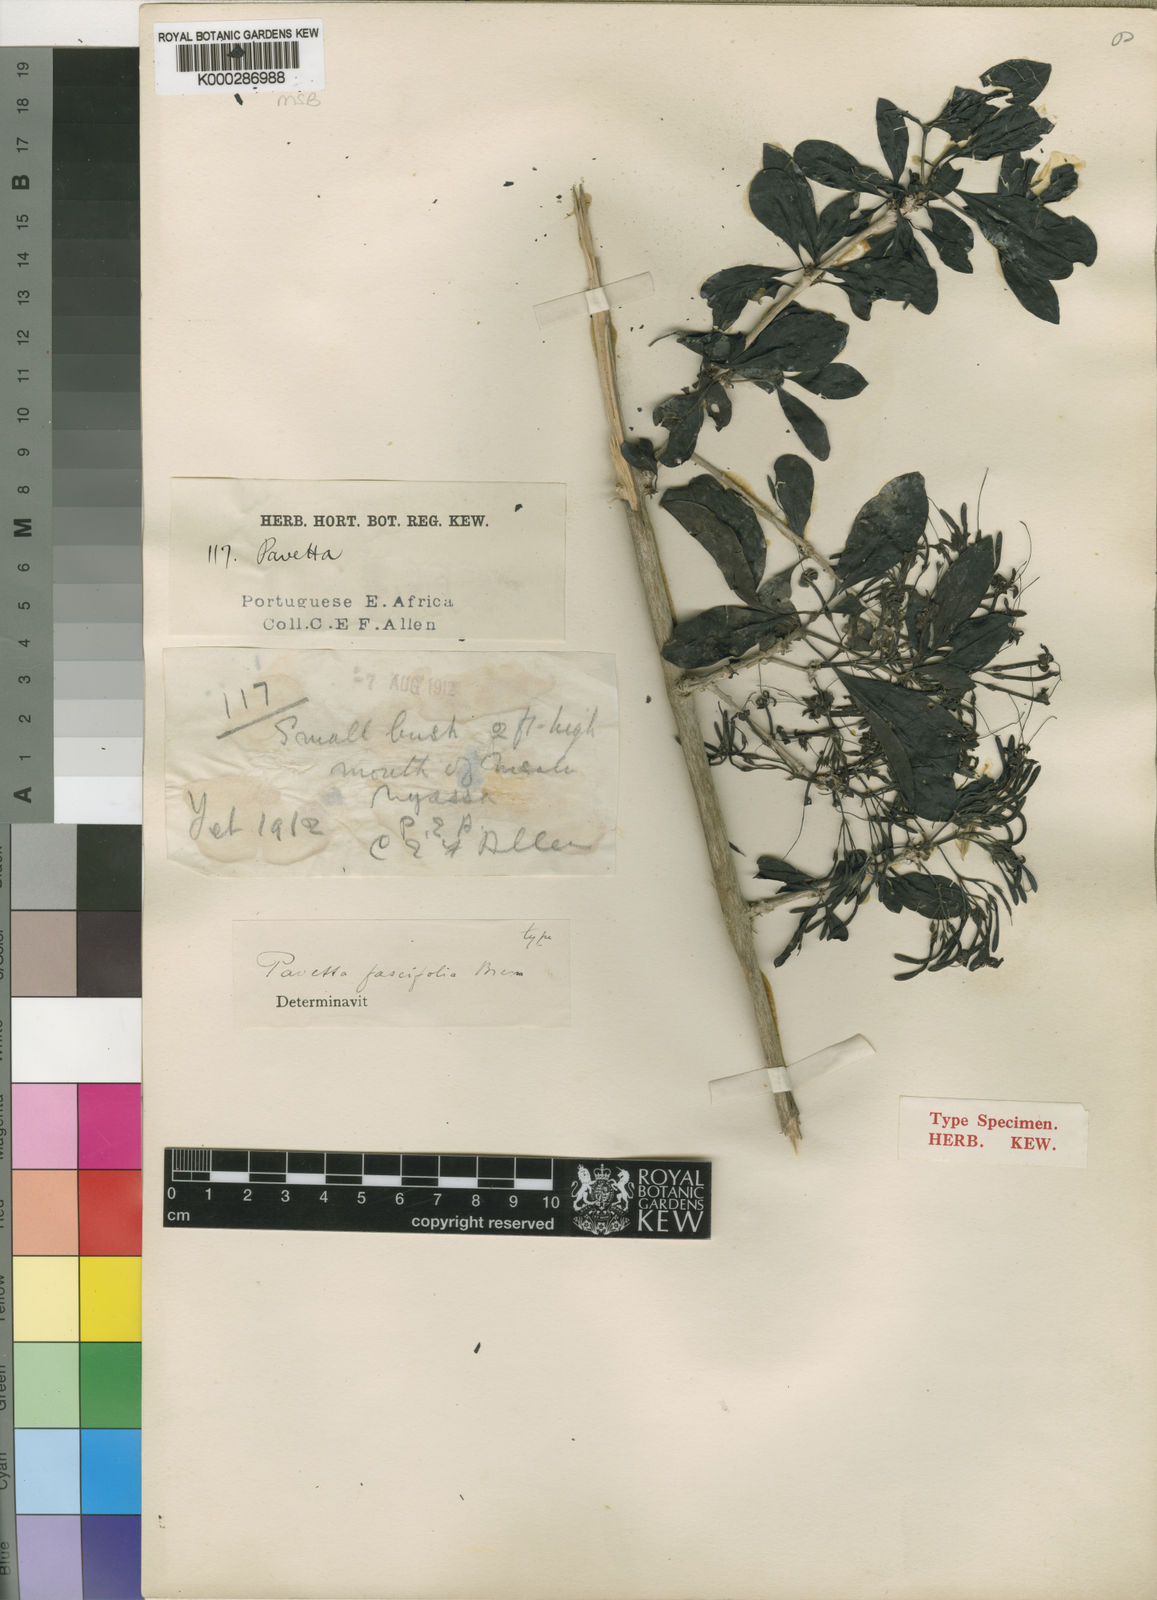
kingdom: Plantae
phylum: Tracheophyta
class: Magnoliopsida
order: Gentianales
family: Rubiaceae
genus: Pavetta
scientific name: Pavetta fascifolia
